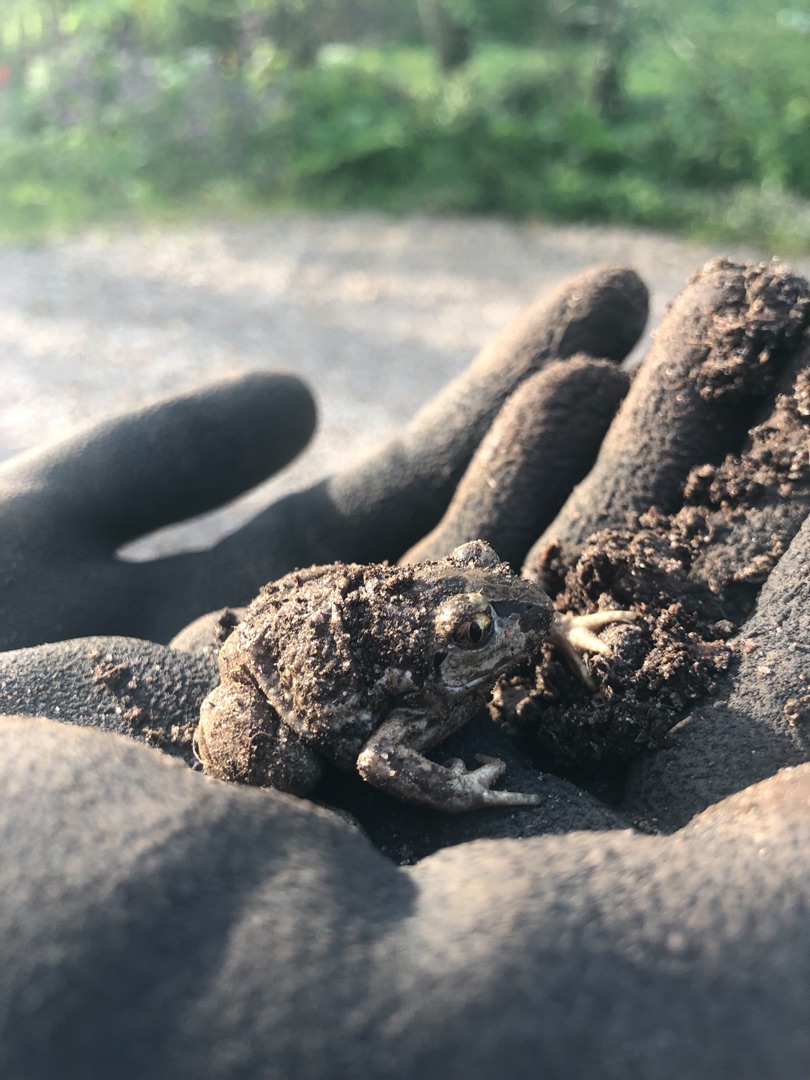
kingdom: Animalia
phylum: Chordata
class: Amphibia
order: Anura
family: Pelobatidae
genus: Pelobates
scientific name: Pelobates fuscus
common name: Løgfrø
